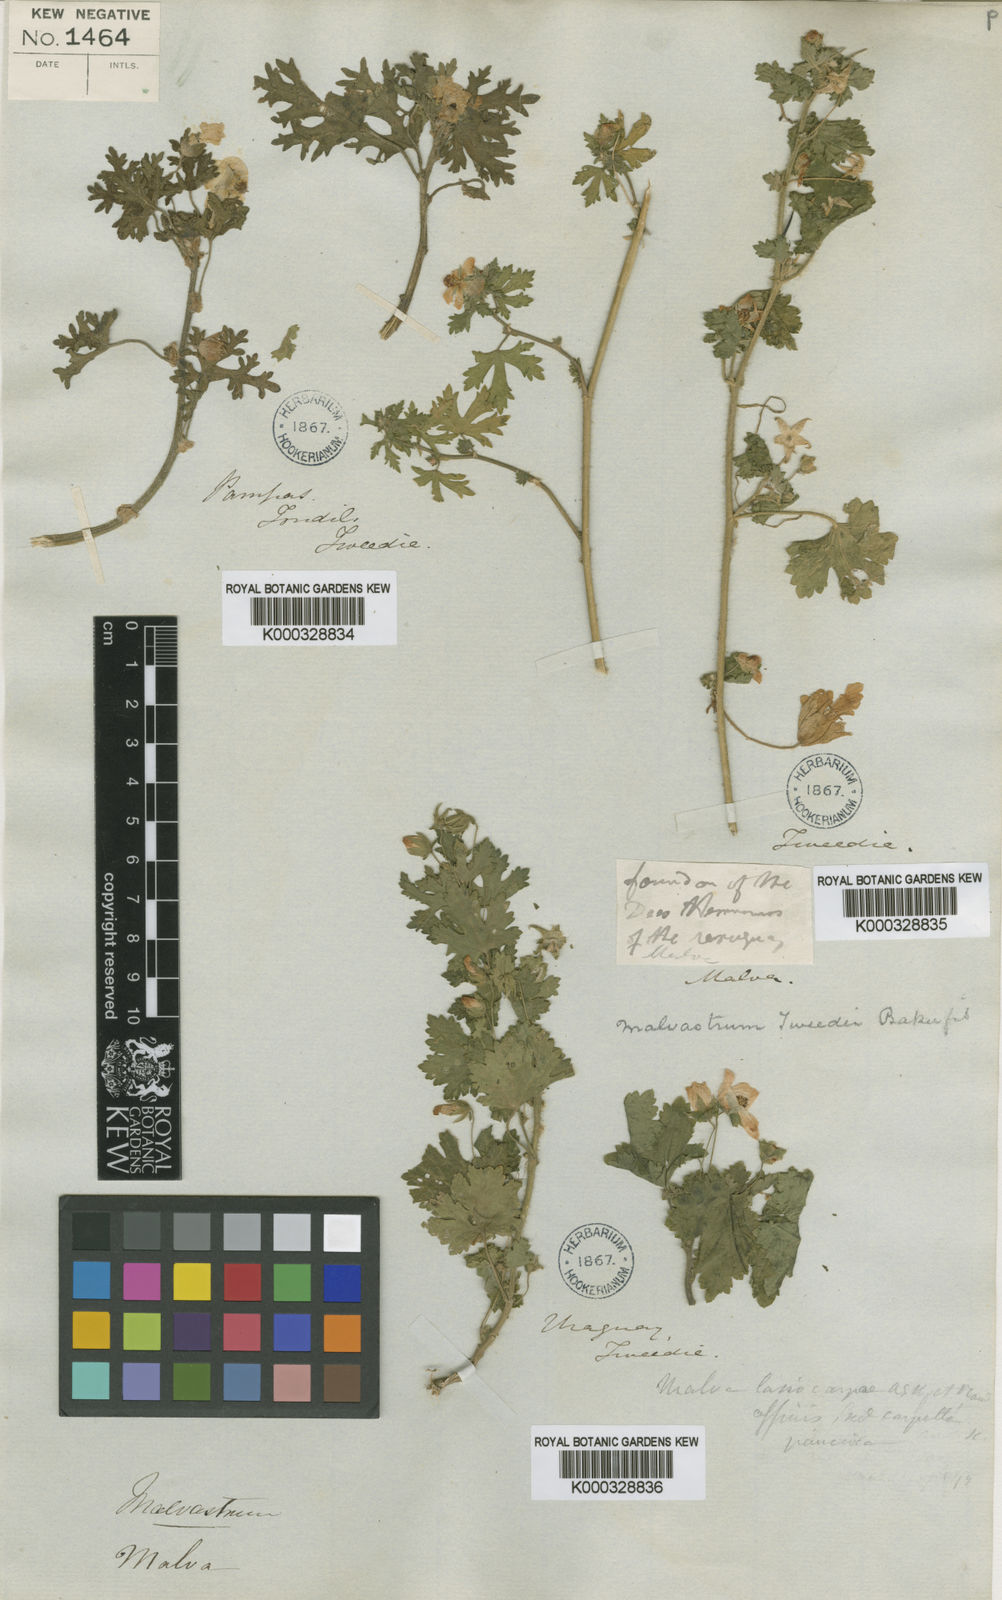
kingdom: Plantae
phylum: Tracheophyta
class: Magnoliopsida
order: Malvales
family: Malvaceae
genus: Modiolastrum
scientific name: Modiolastrum
